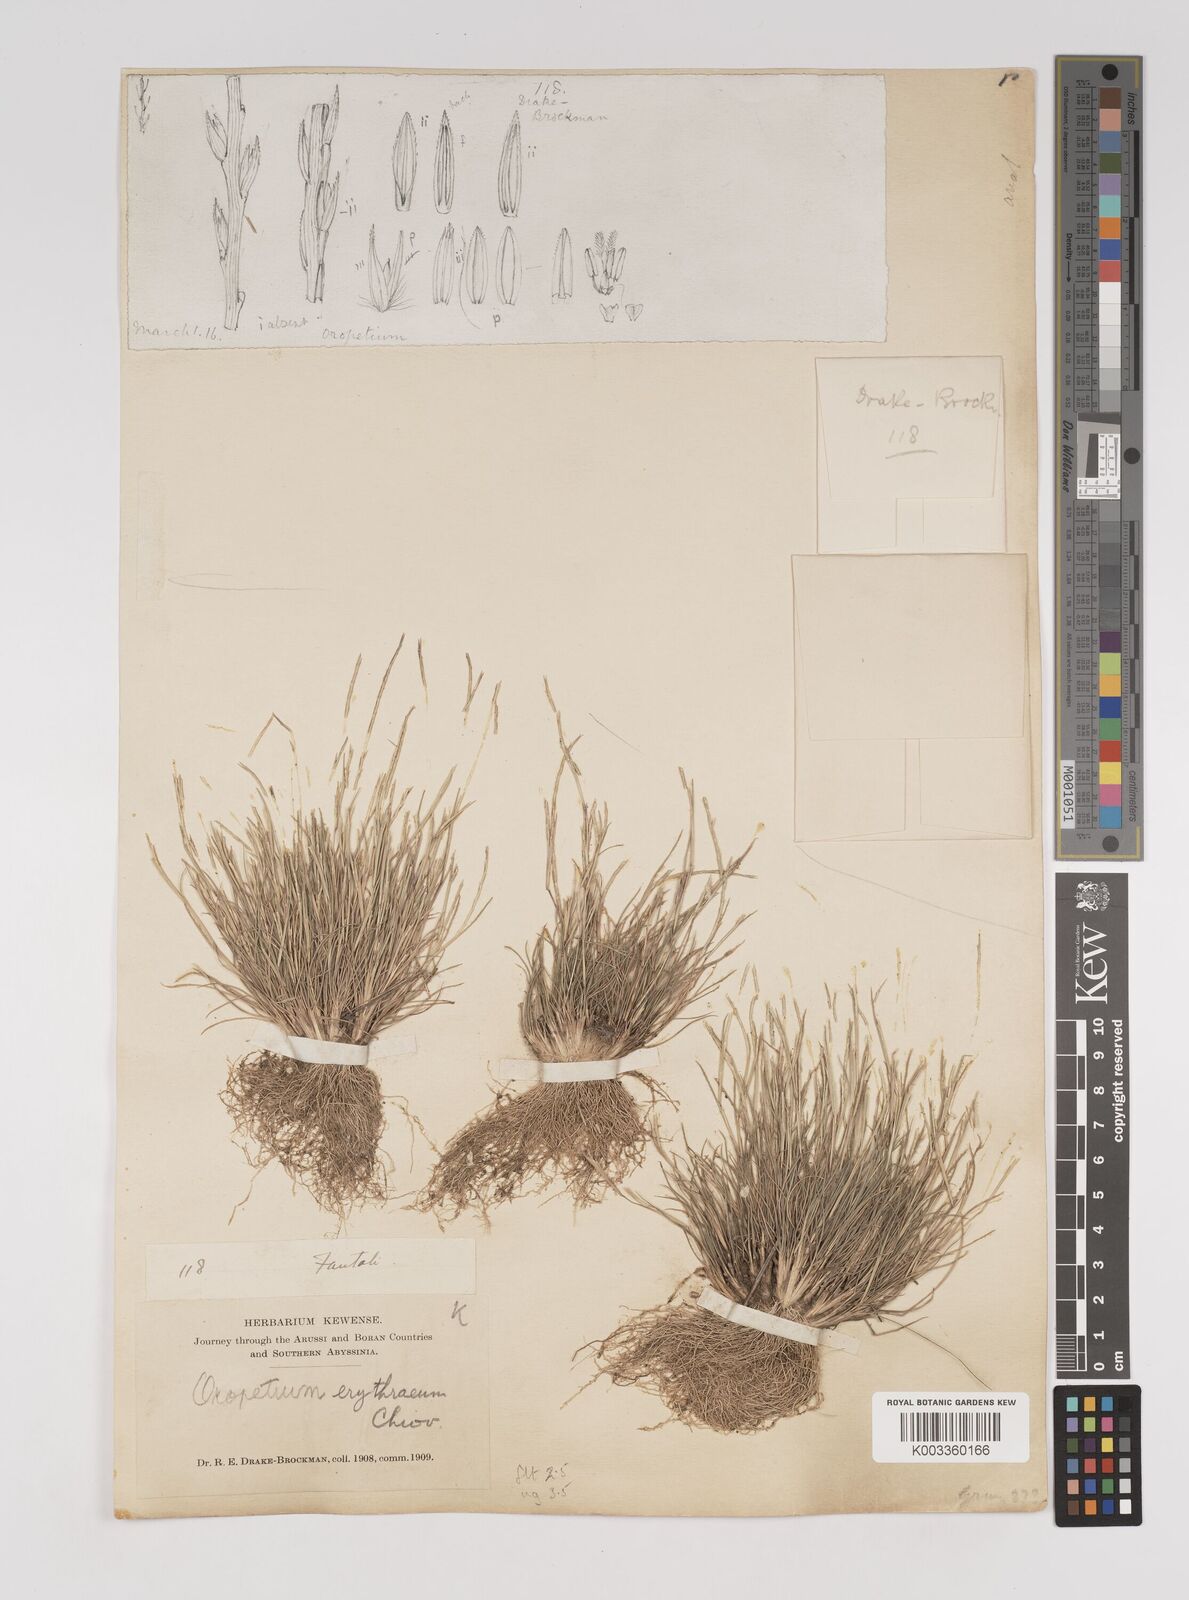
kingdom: Plantae
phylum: Tracheophyta
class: Liliopsida
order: Poales
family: Poaceae
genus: Oropetium
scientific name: Oropetium capense
